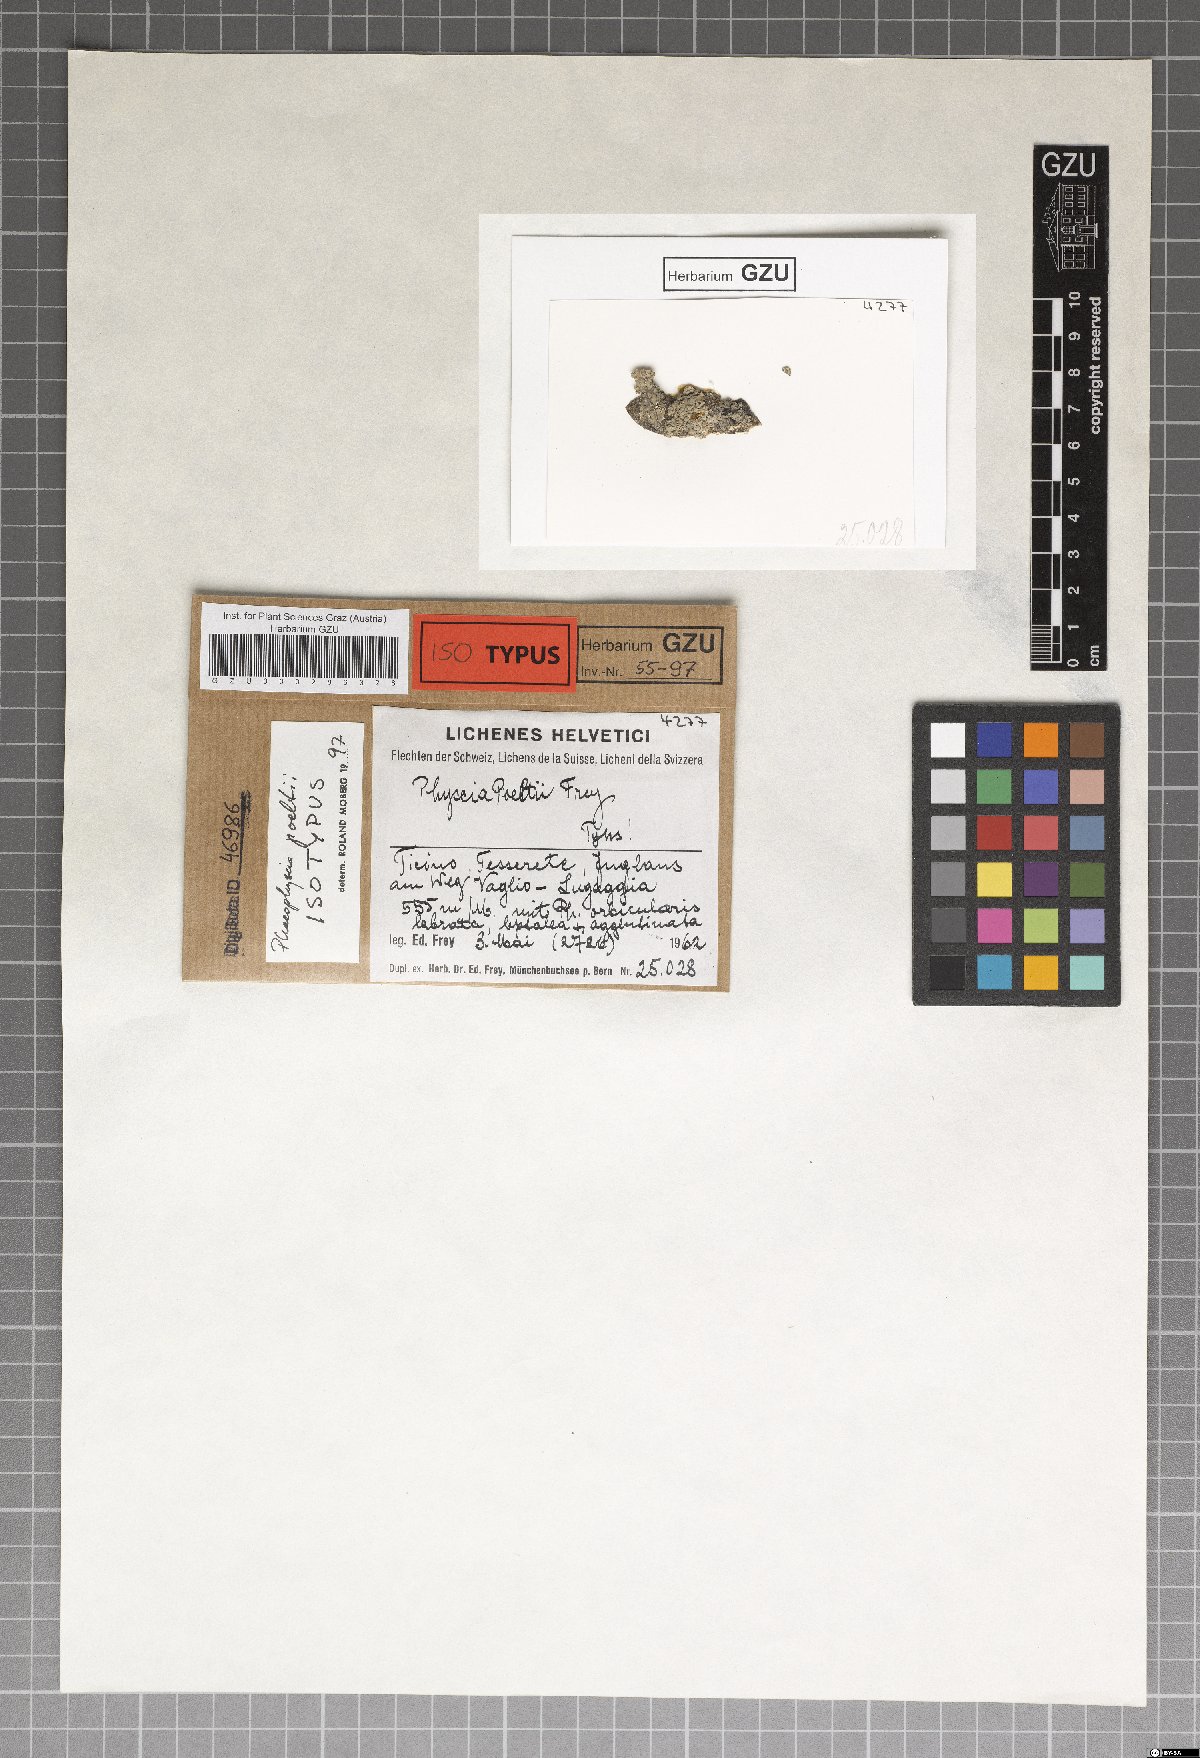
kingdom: Fungi
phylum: Ascomycota
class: Lecanoromycetes
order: Caliciales
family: Physciaceae
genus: Physciella
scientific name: Physciella poeltii
